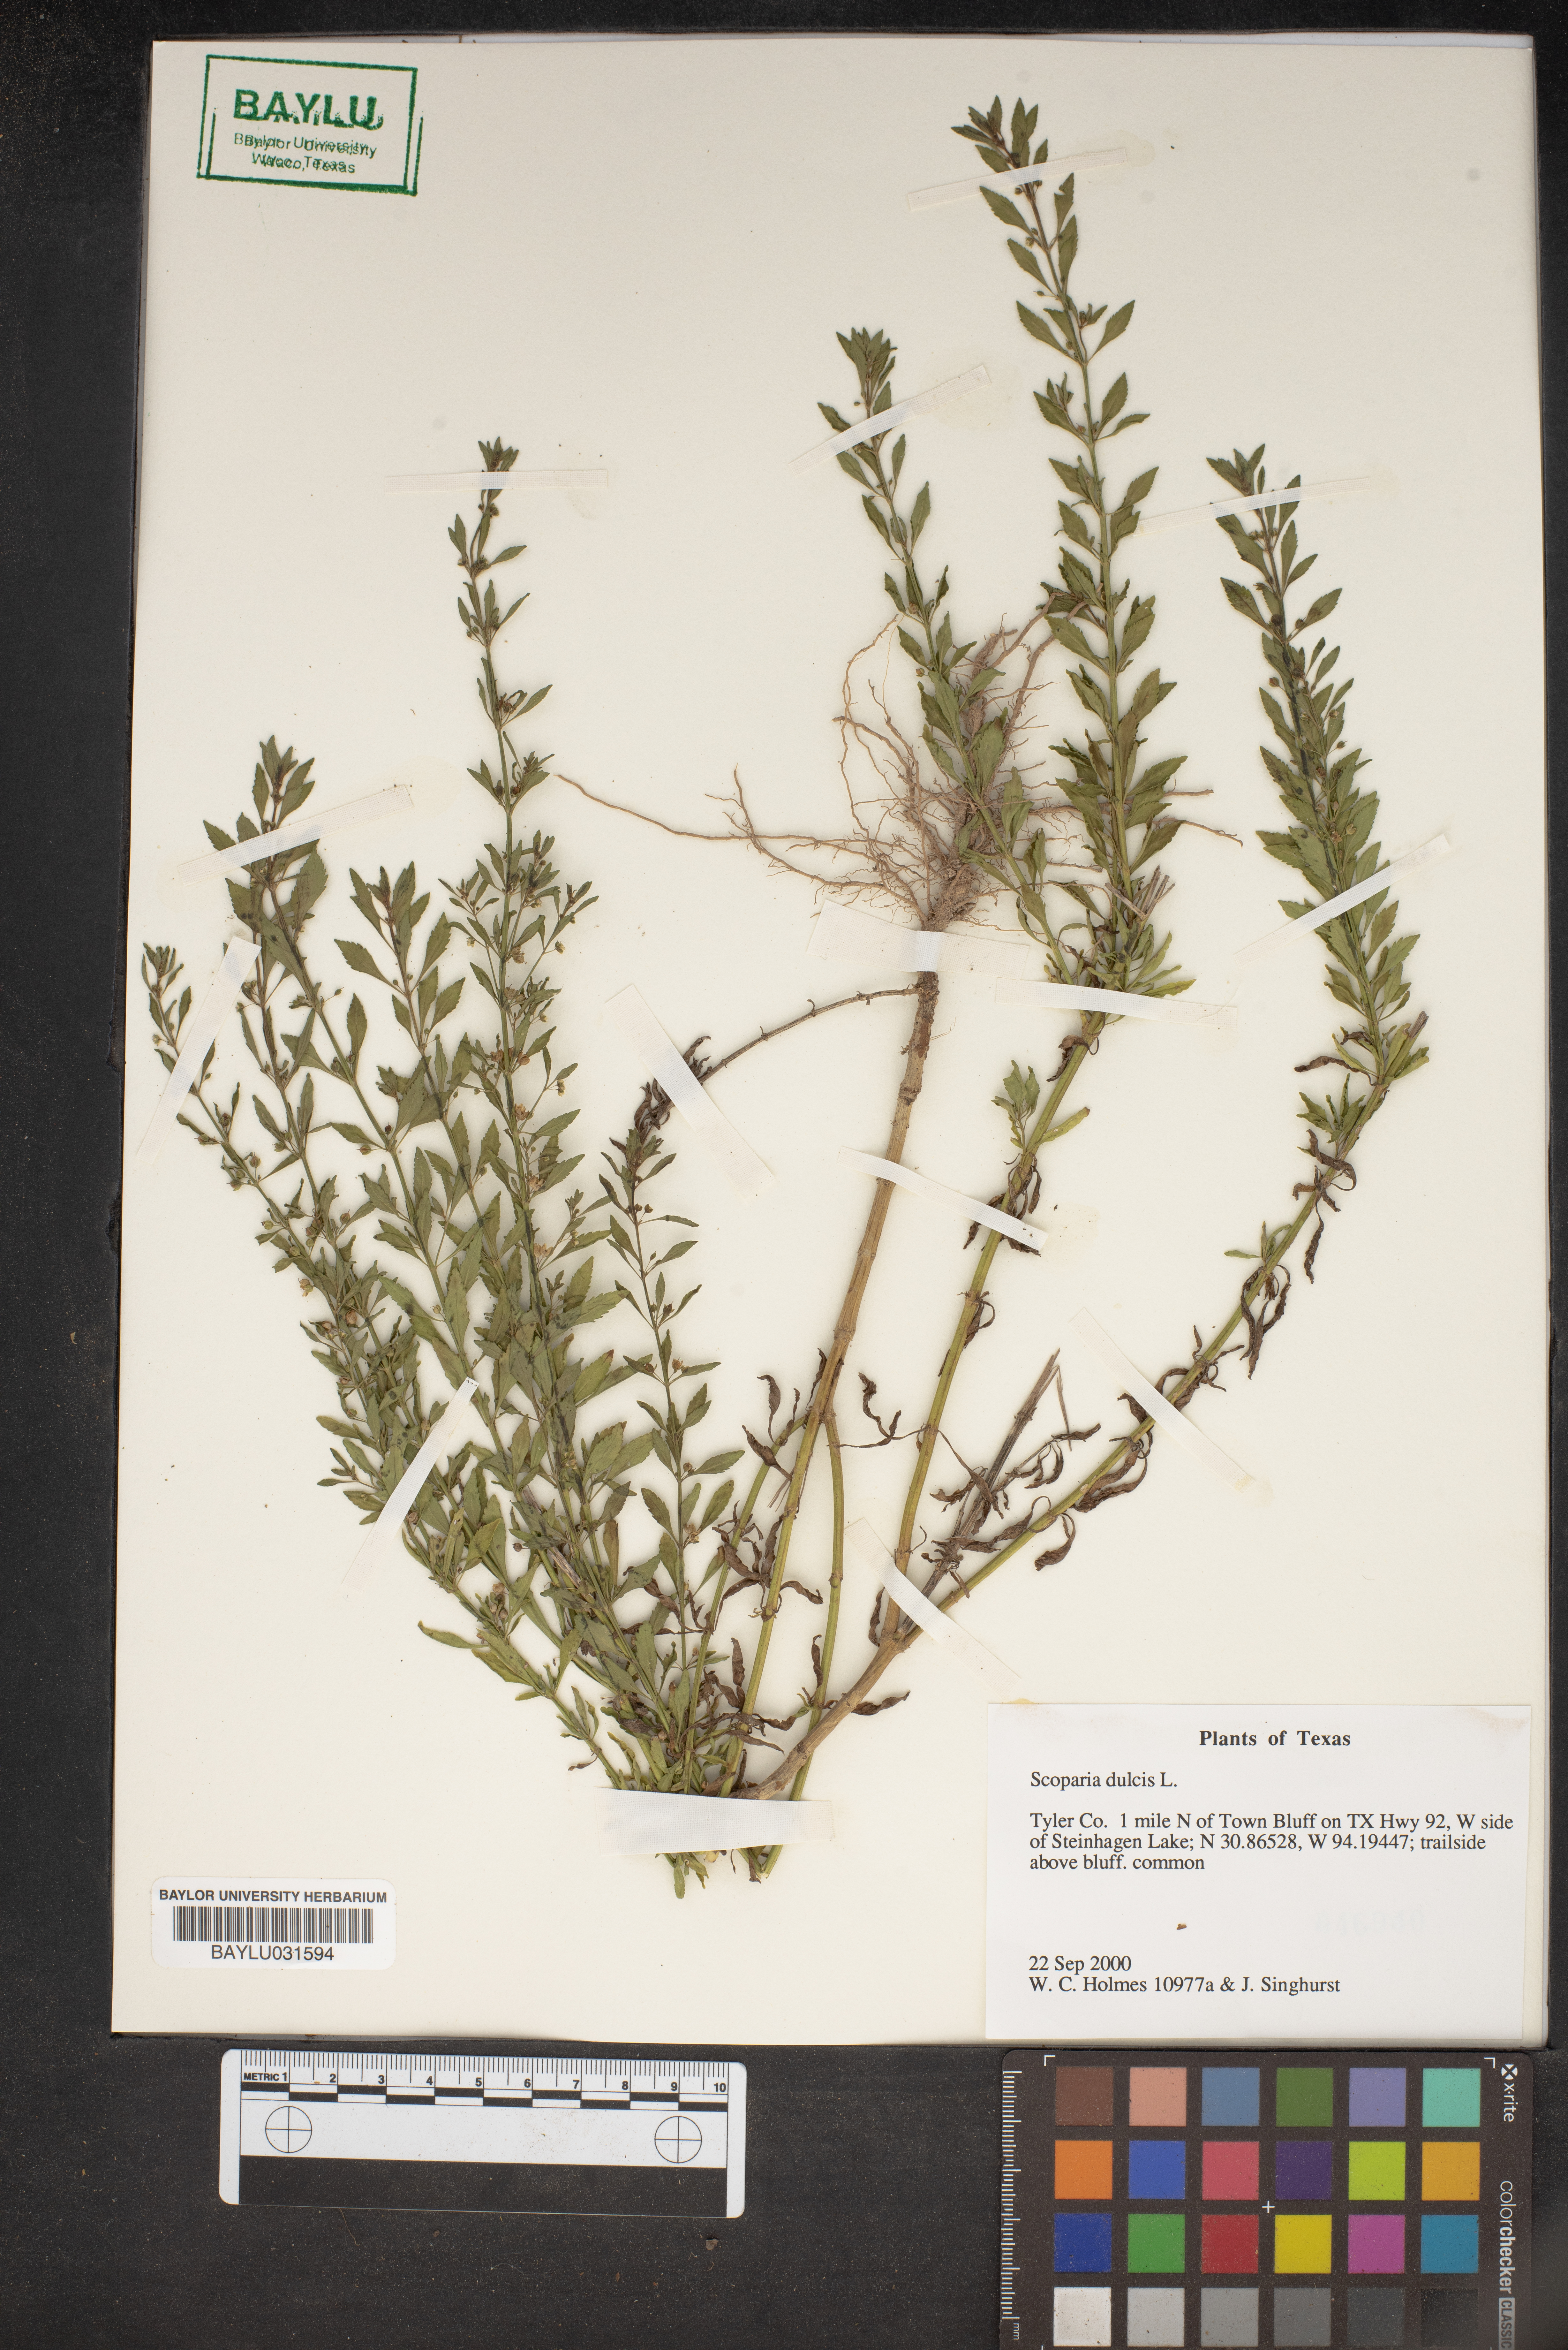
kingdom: Plantae
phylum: Tracheophyta
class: Magnoliopsida
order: Lamiales
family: Plantaginaceae
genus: Scoparia
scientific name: Scoparia dulcis
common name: Scoparia-weed
